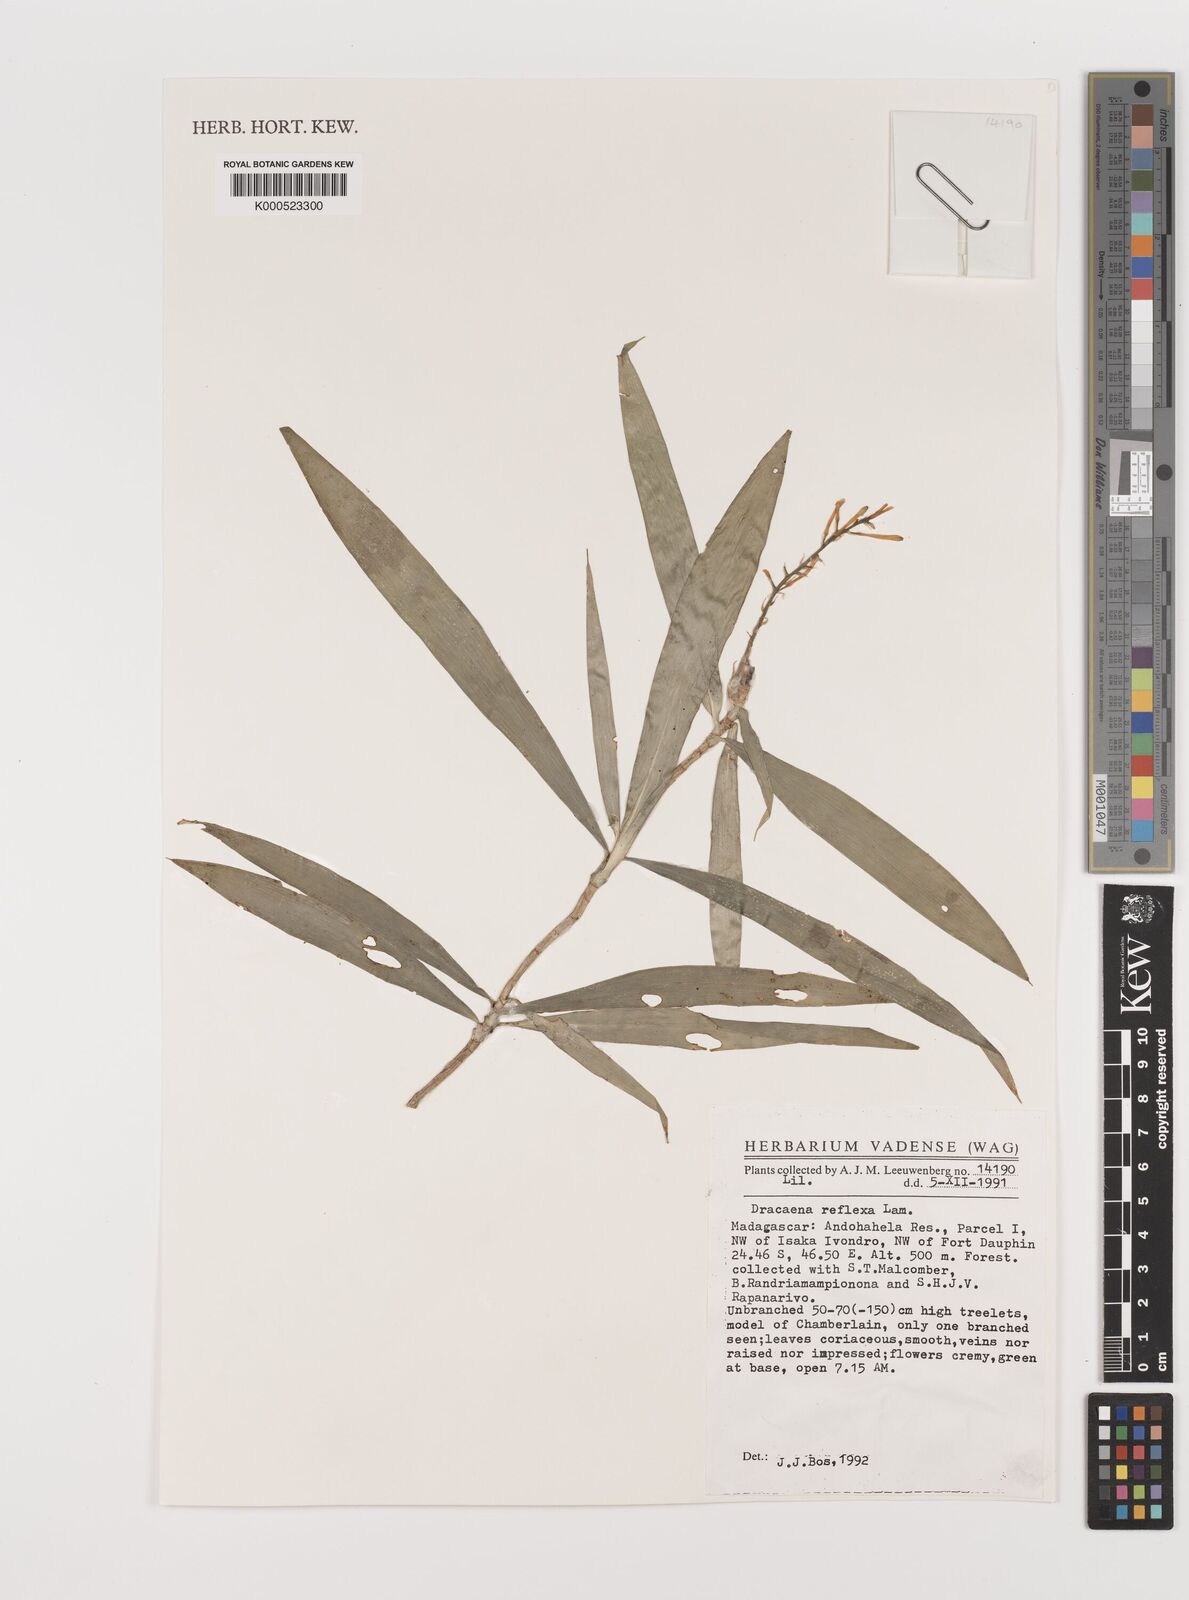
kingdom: Plantae
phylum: Tracheophyta
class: Liliopsida
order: Asparagales
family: Asparagaceae
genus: Dracaena
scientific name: Dracaena reflexa
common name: Song-of-india
